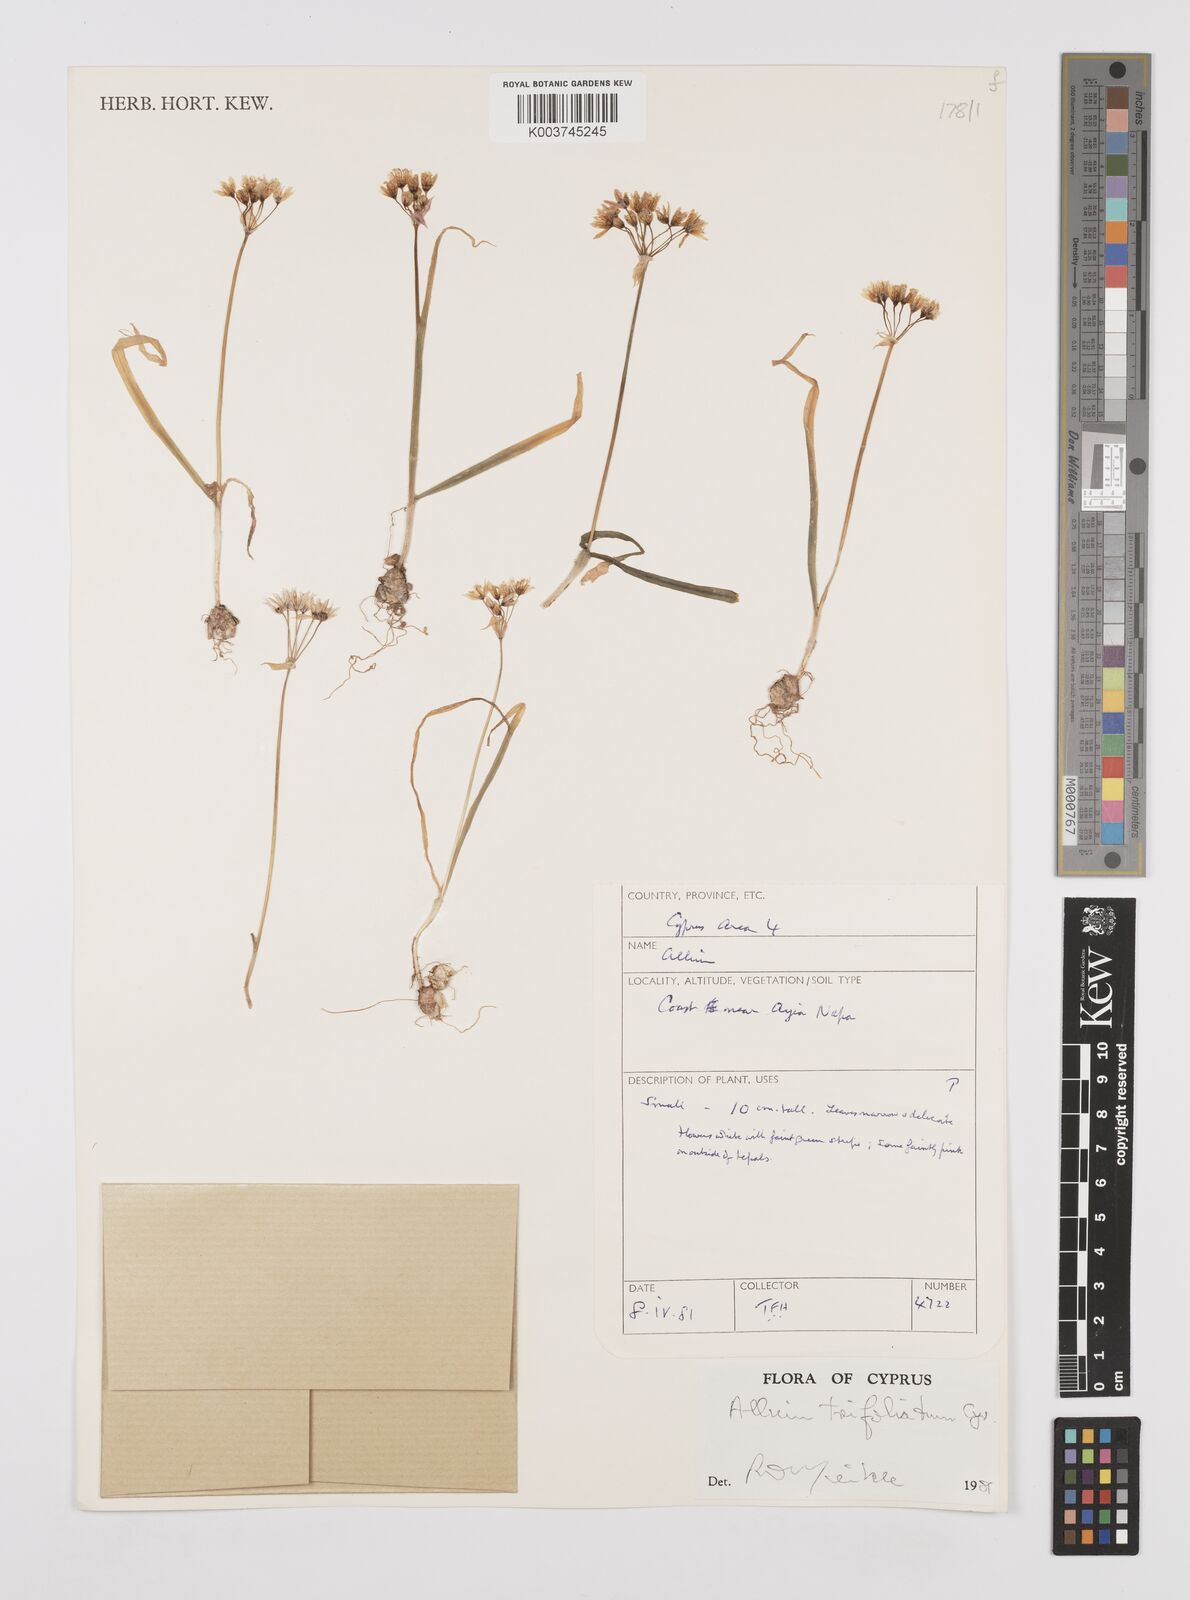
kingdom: Plantae
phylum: Tracheophyta
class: Liliopsida
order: Asparagales
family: Amaryllidaceae
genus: Allium
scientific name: Allium trifoliatum
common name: Pink garlic
